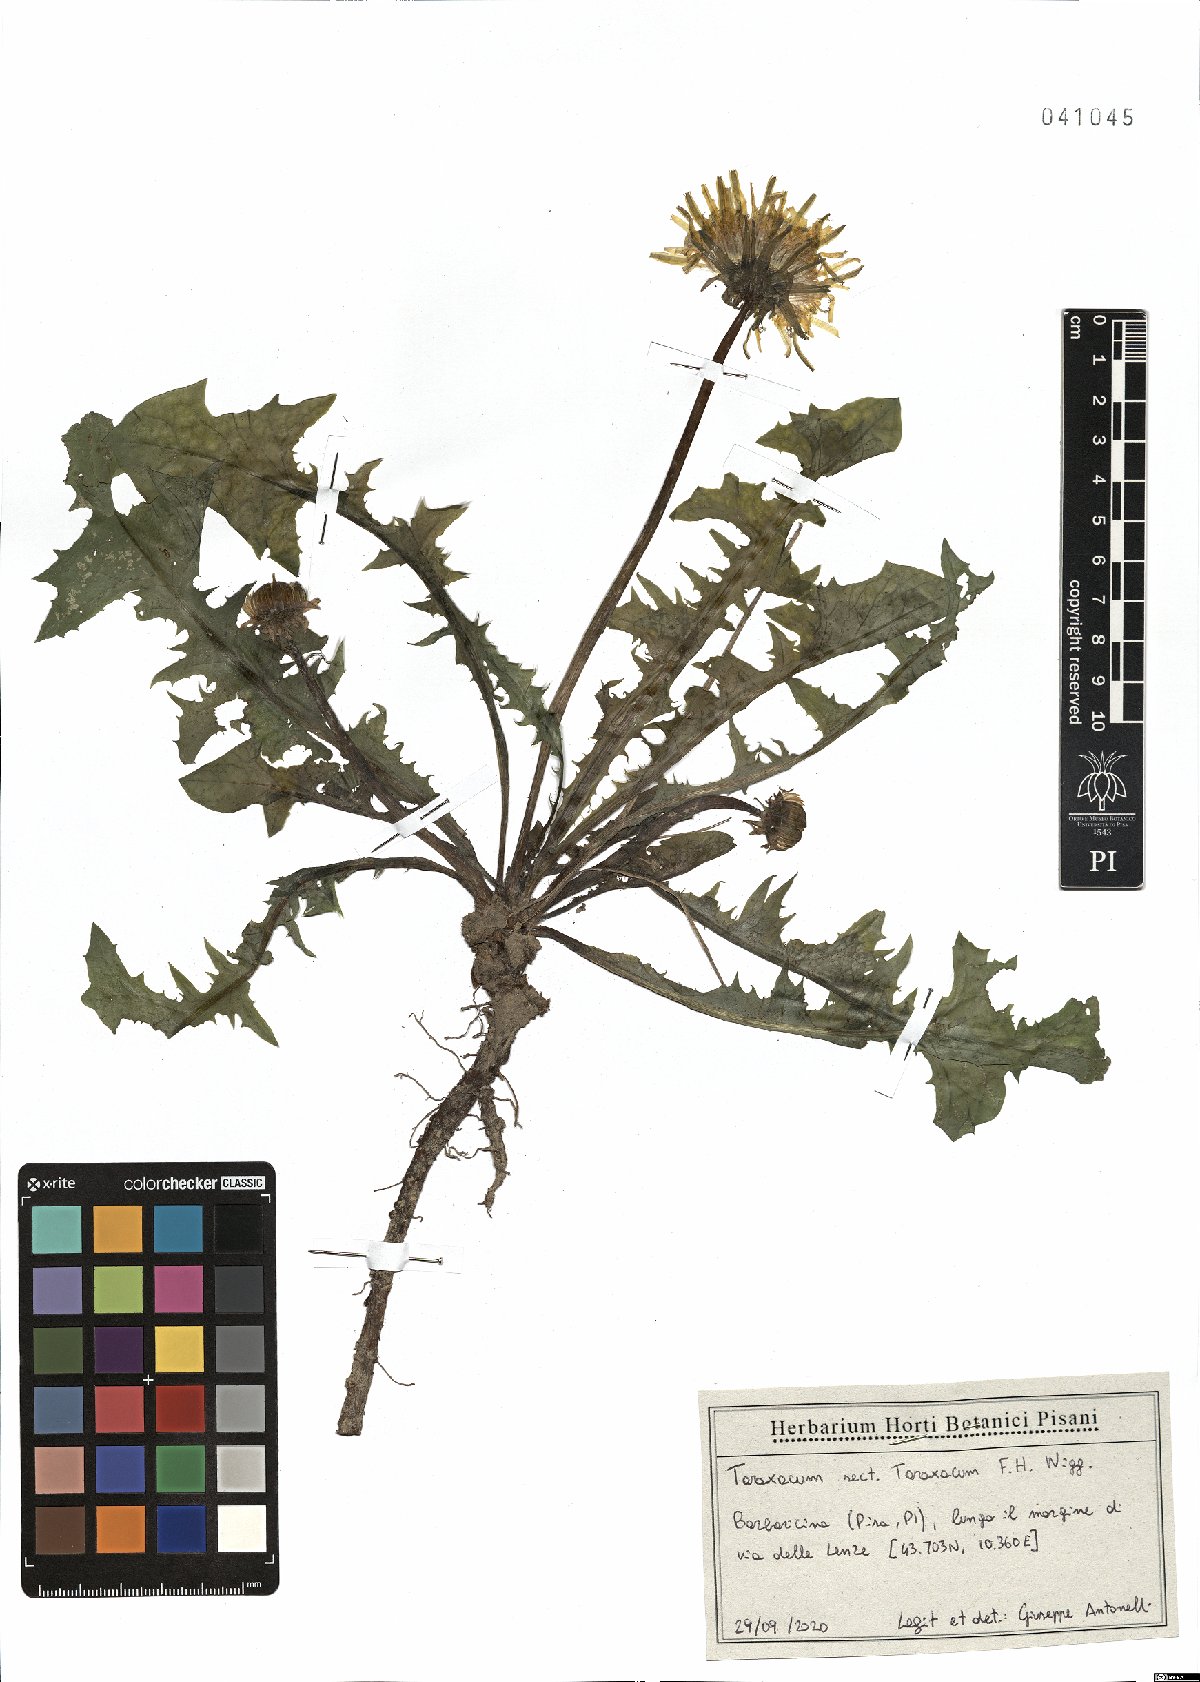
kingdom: Plantae
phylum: Tracheophyta
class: Magnoliopsida
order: Asterales
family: Asteraceae
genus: Taraxacum
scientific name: Taraxacum officinale
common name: Common dandelion
